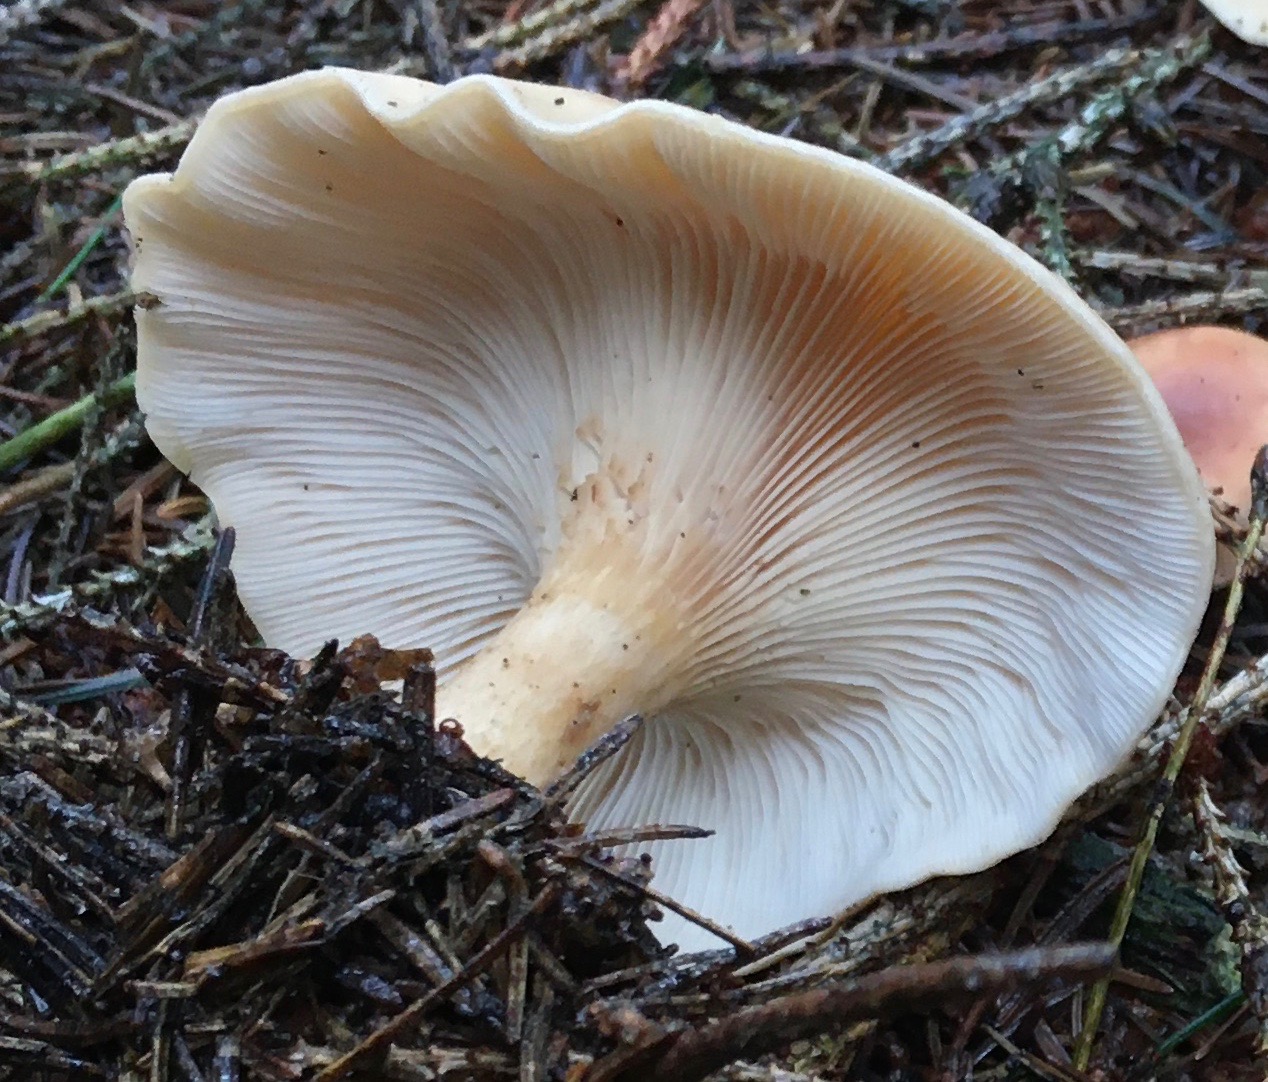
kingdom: Fungi
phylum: Basidiomycota
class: Agaricomycetes
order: Agaricales
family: Tricholomataceae
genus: Paralepista
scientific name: Paralepista flaccida
